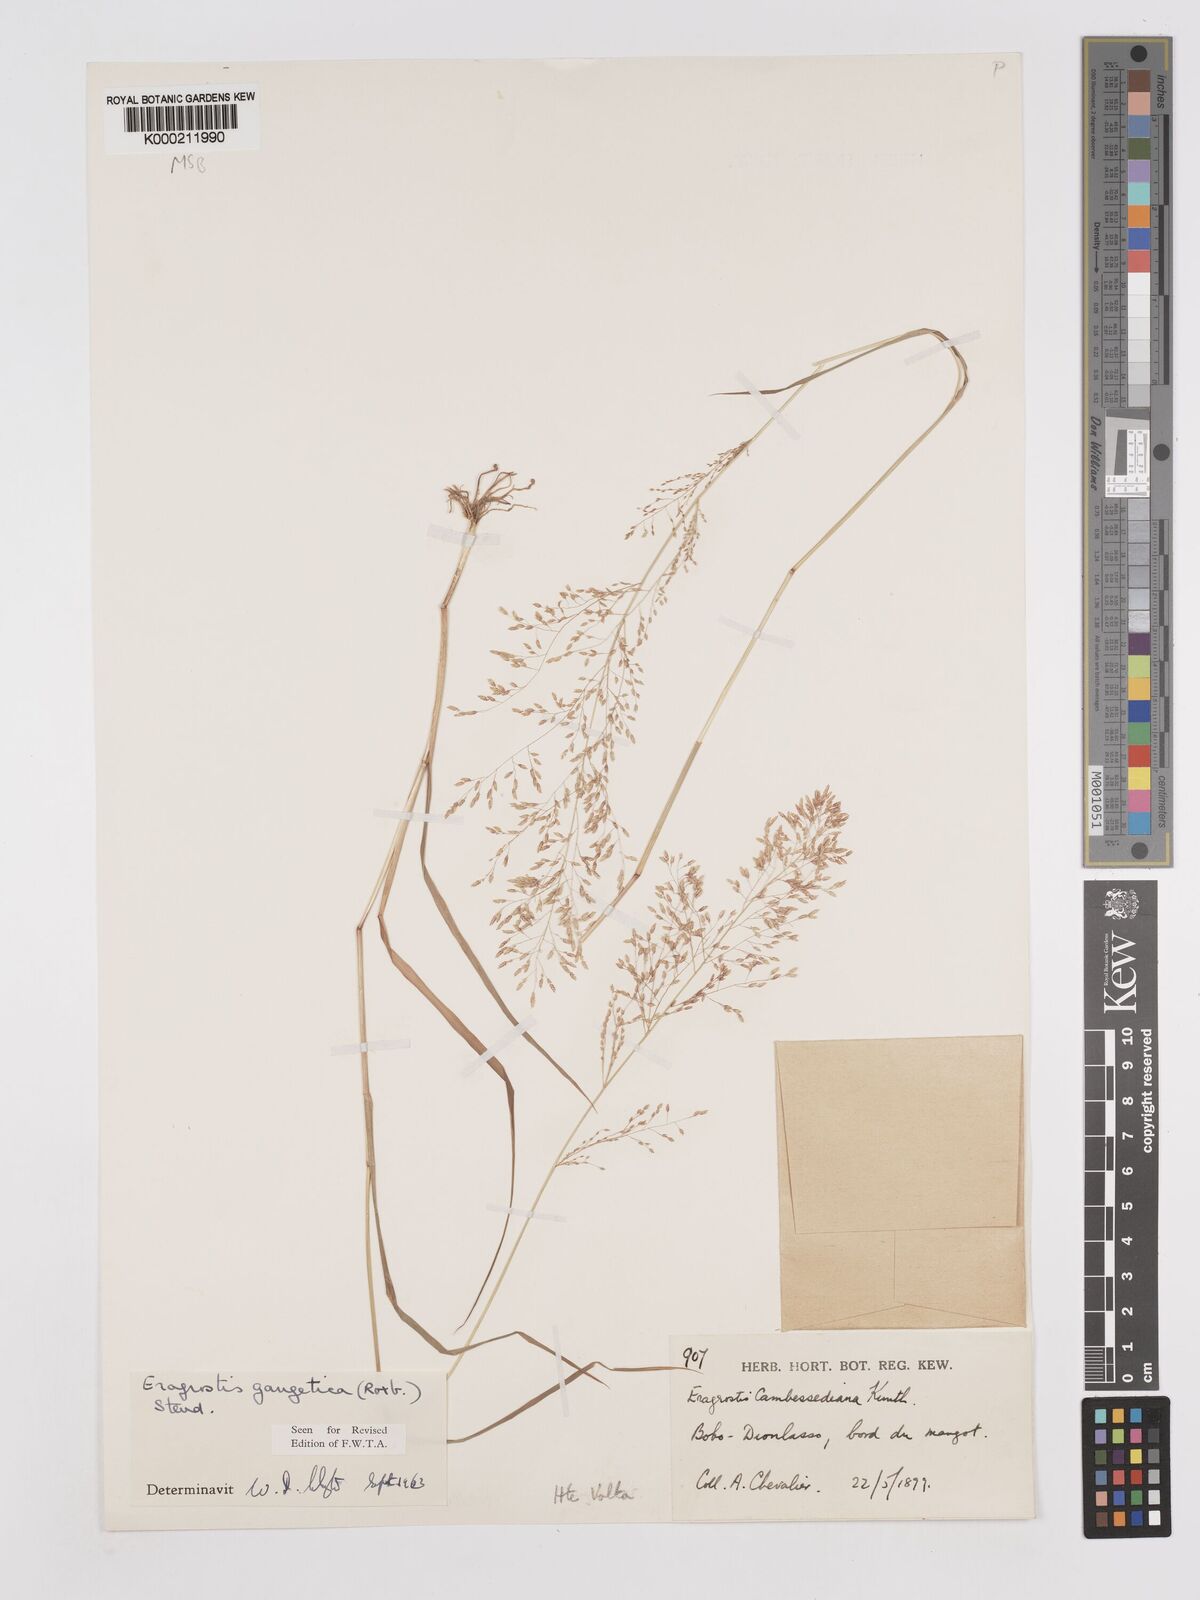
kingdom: Plantae
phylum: Tracheophyta
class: Liliopsida
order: Poales
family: Poaceae
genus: Eragrostis
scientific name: Eragrostis gangetica
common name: Slimflower lovegrass
